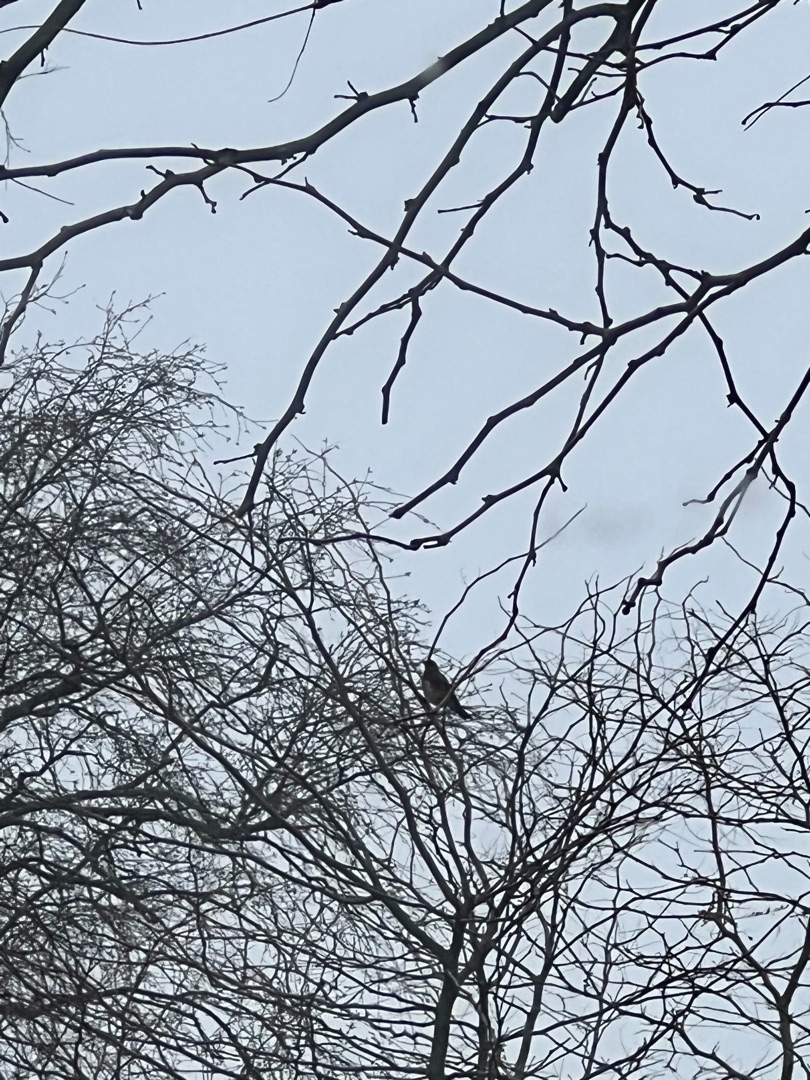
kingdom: Animalia
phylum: Chordata
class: Aves
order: Passeriformes
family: Turdidae
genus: Turdus
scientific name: Turdus pilaris
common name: Sjagger
